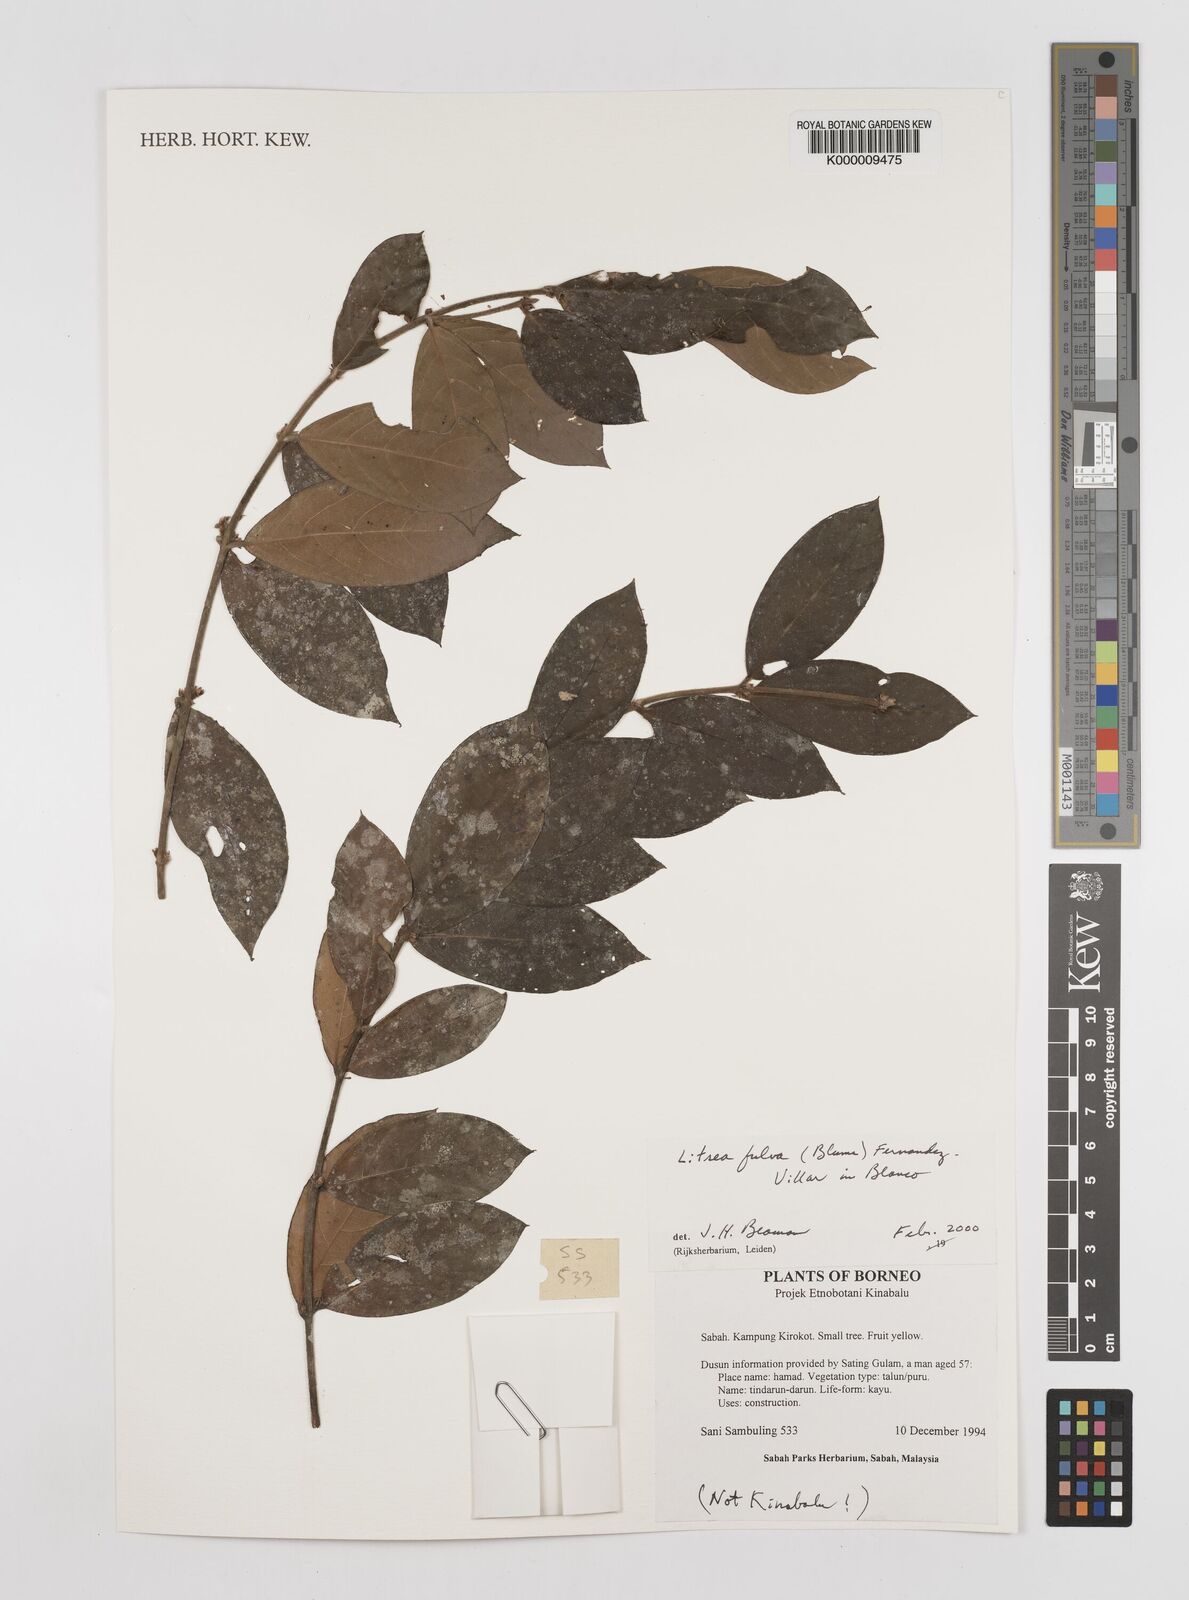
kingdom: Plantae
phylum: Tracheophyta
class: Magnoliopsida
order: Laurales
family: Lauraceae
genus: Litsea
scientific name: Litsea fulva
